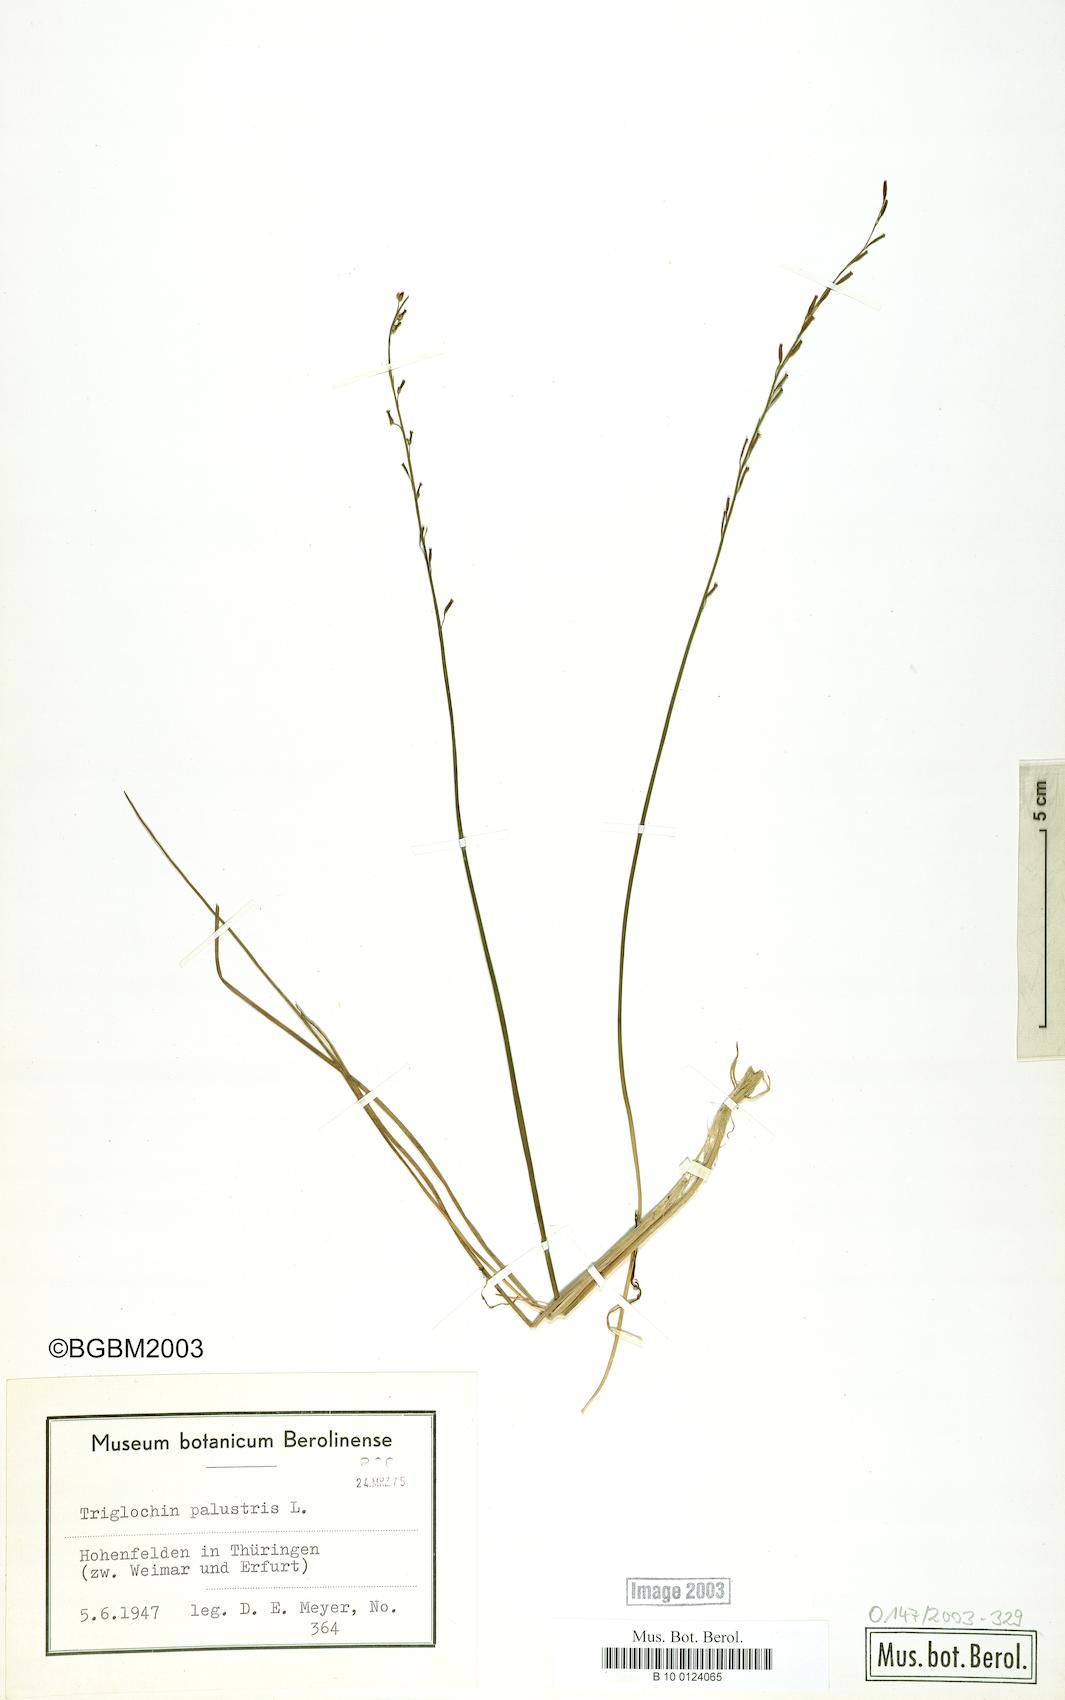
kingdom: Plantae
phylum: Tracheophyta
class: Liliopsida
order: Alismatales
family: Juncaginaceae
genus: Triglochin
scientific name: Triglochin palustris
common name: Marsh arrowgrass
